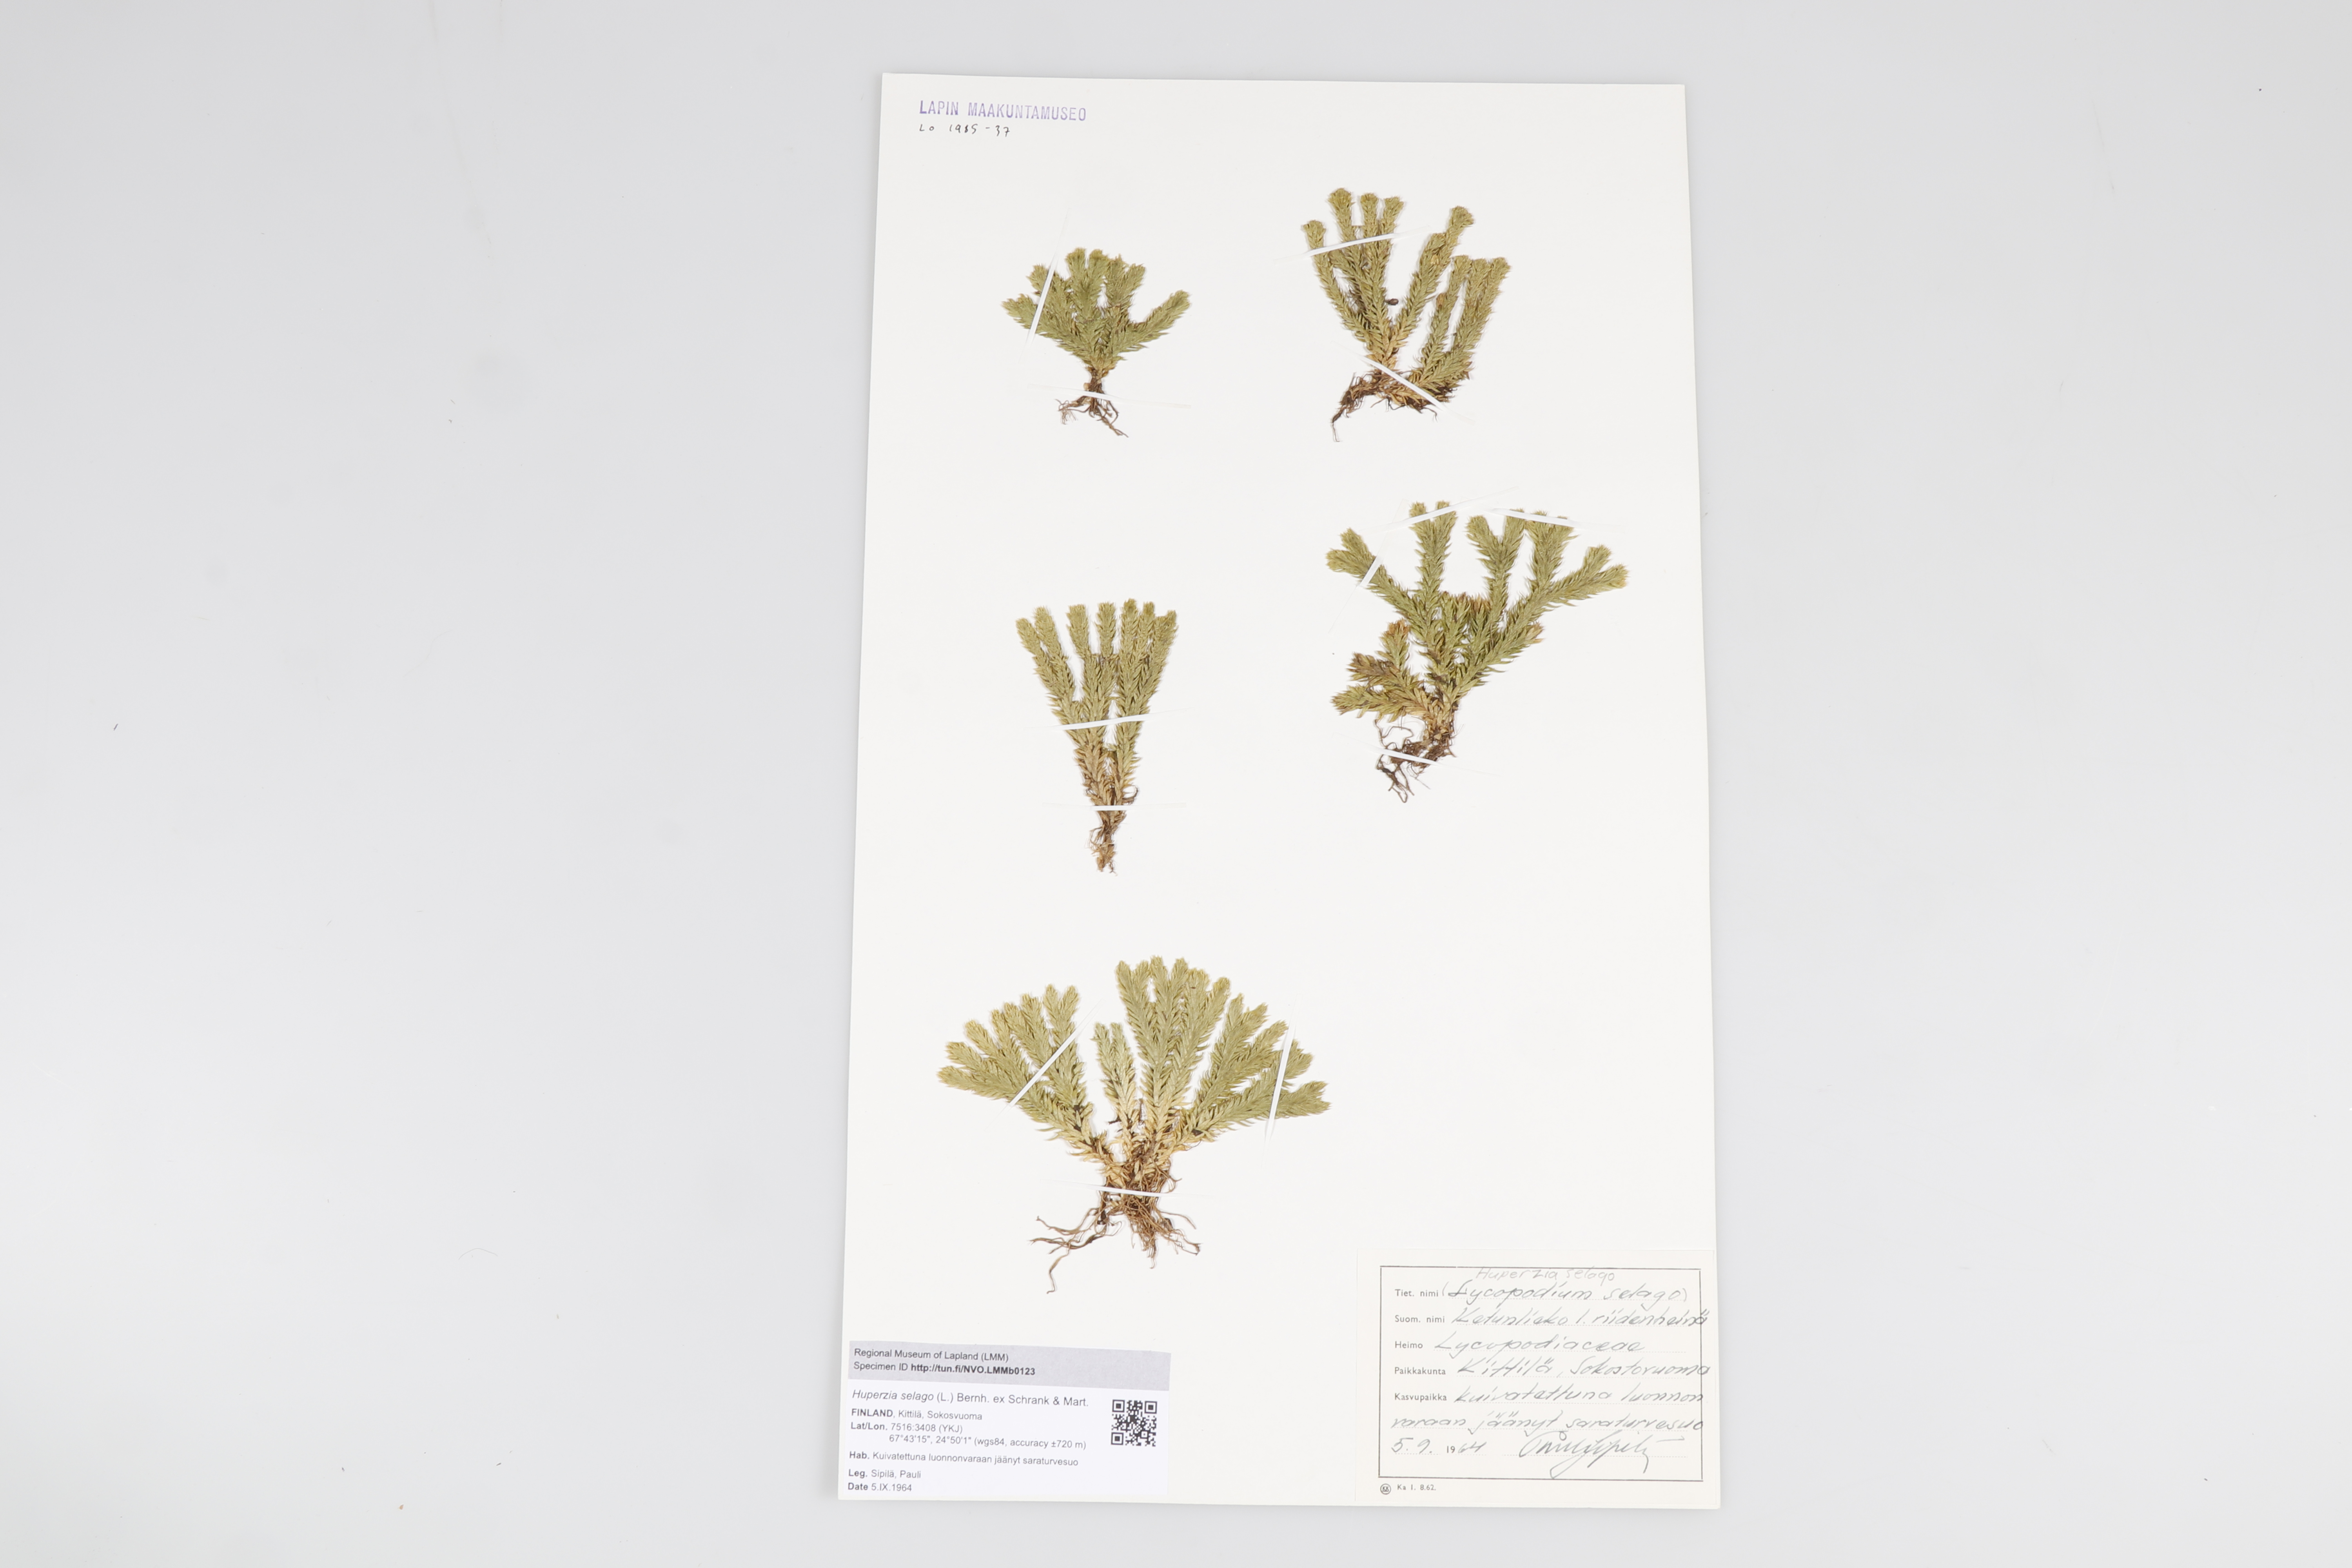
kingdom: Plantae
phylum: Tracheophyta
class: Lycopodiopsida
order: Lycopodiales
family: Lycopodiaceae
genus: Huperzia
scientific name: Huperzia
